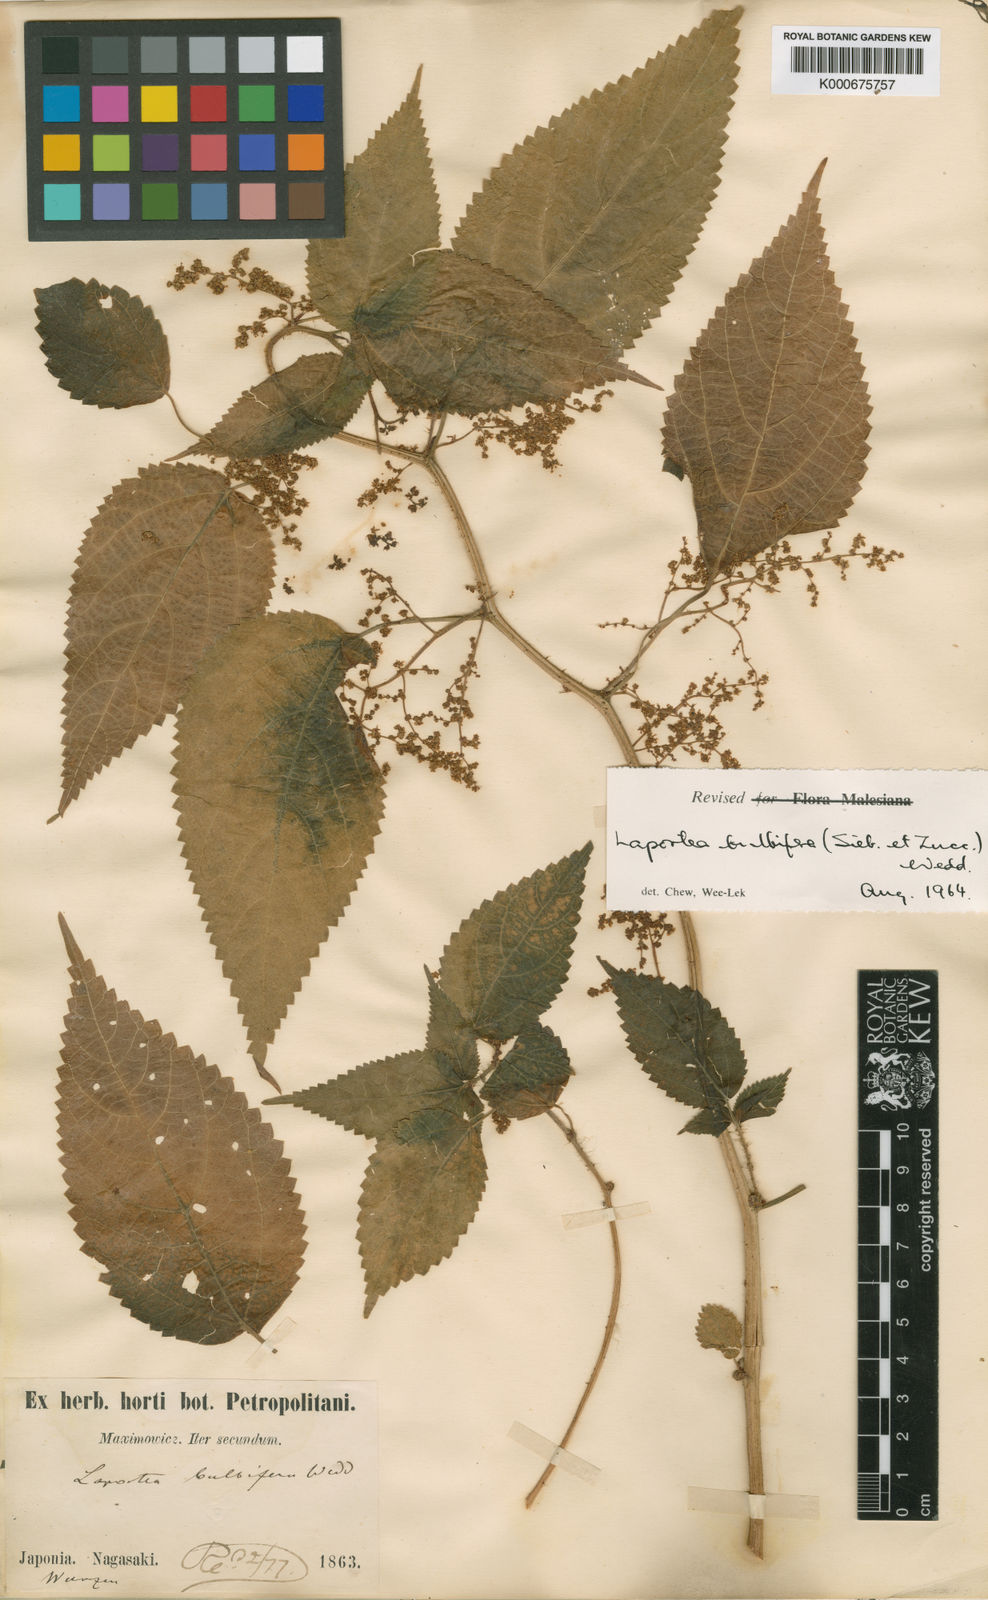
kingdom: Plantae
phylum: Tracheophyta
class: Magnoliopsida
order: Rosales
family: Urticaceae
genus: Laportea
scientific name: Laportea bulbifera
